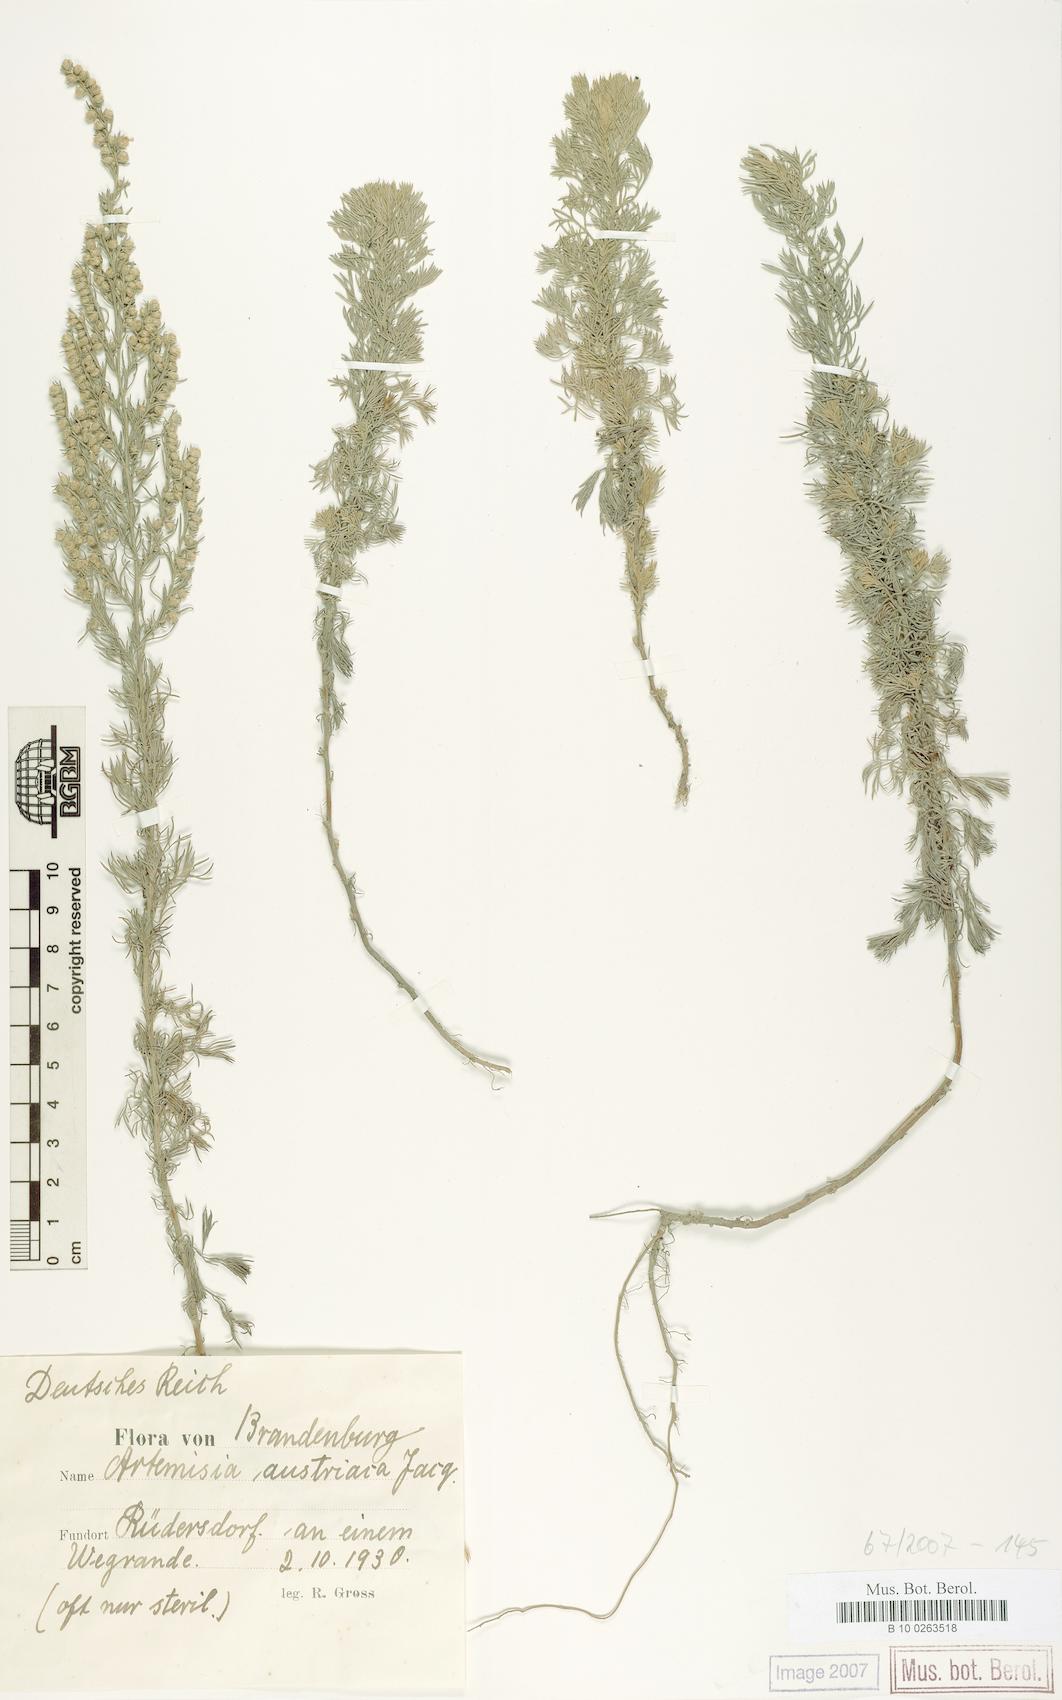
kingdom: Plantae
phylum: Tracheophyta
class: Magnoliopsida
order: Asterales
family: Asteraceae
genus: Artemisia
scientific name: Artemisia austriaca
